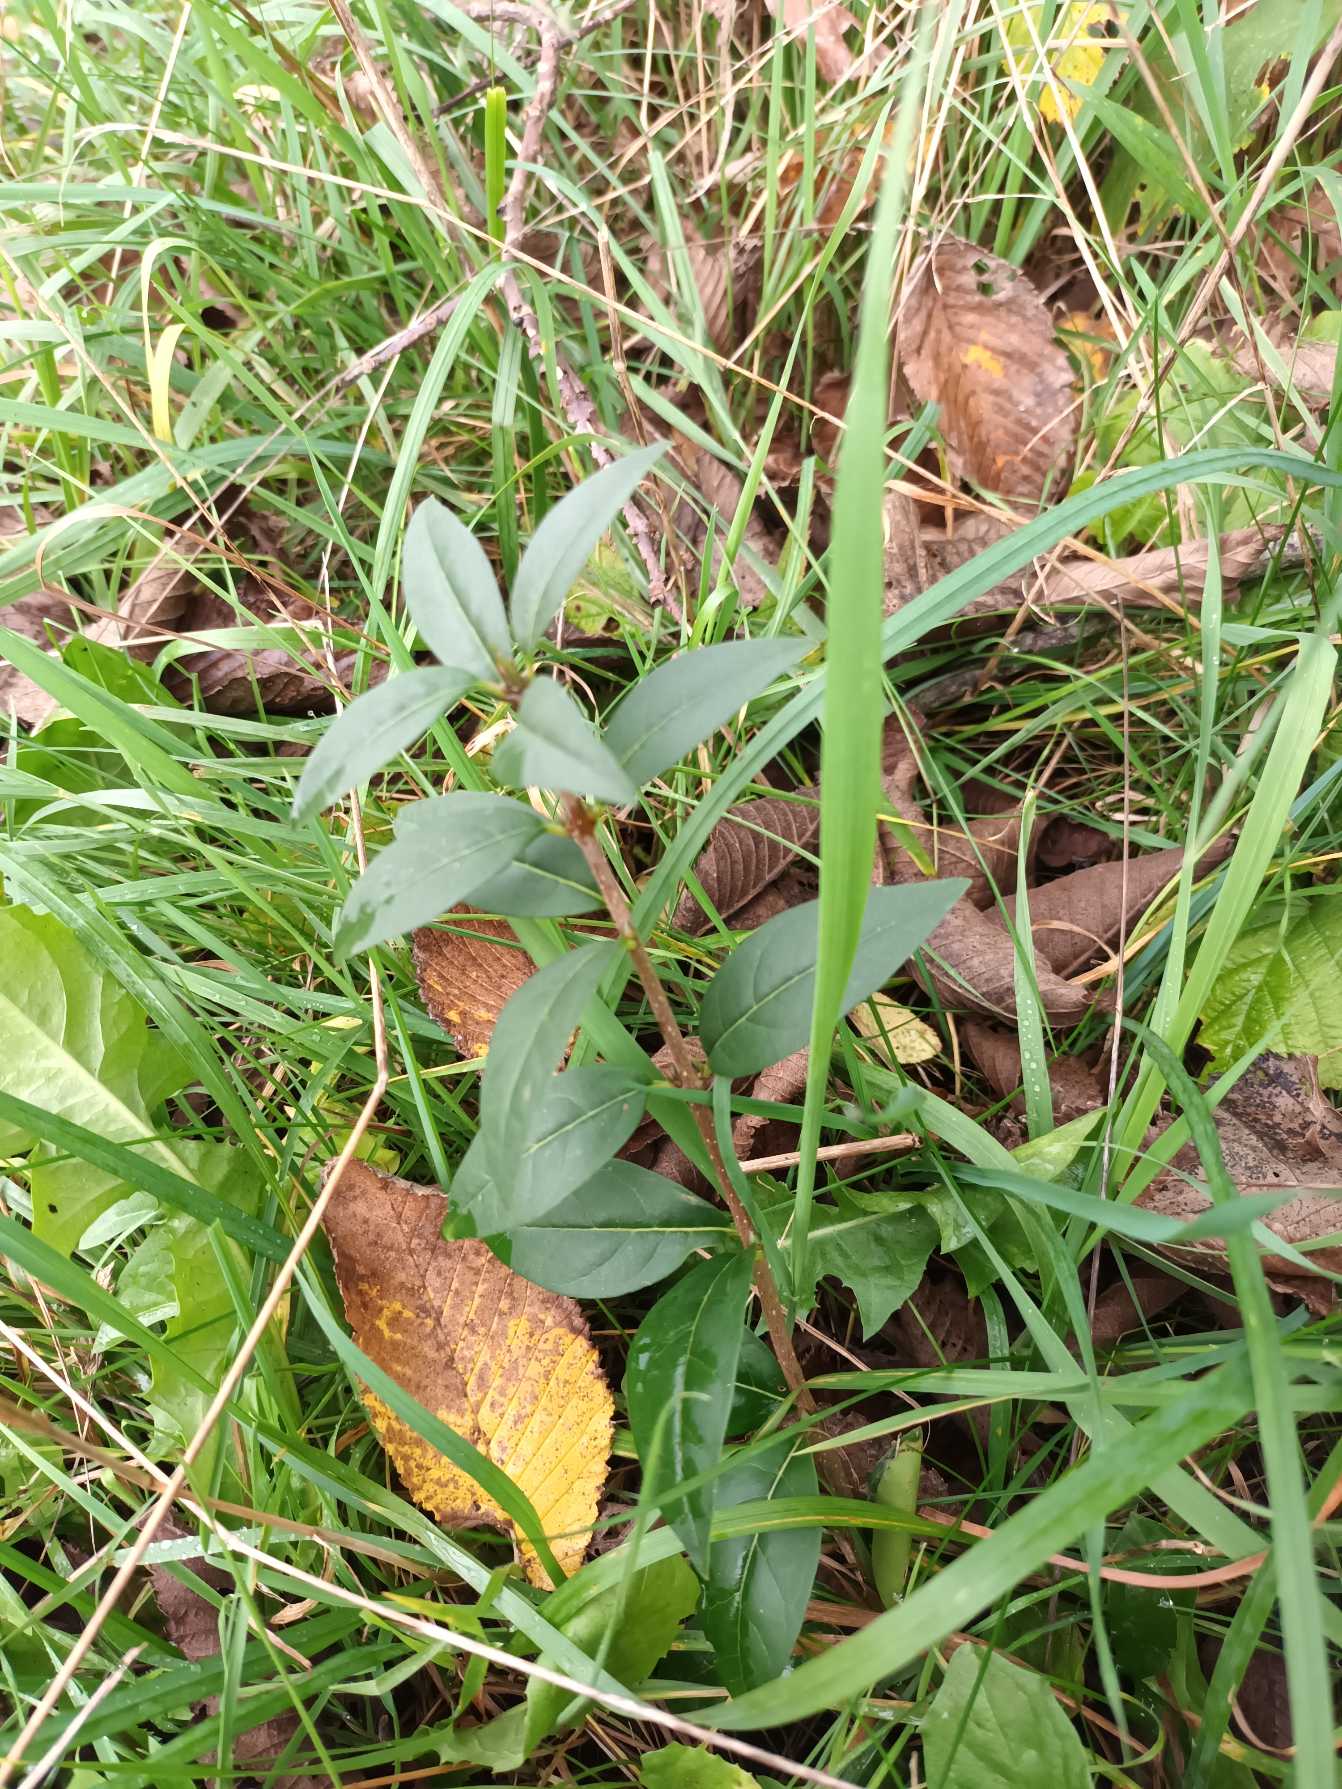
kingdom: Plantae
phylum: Tracheophyta
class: Magnoliopsida
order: Lamiales
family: Oleaceae
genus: Ligustrum
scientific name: Ligustrum vulgare
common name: Liguster
